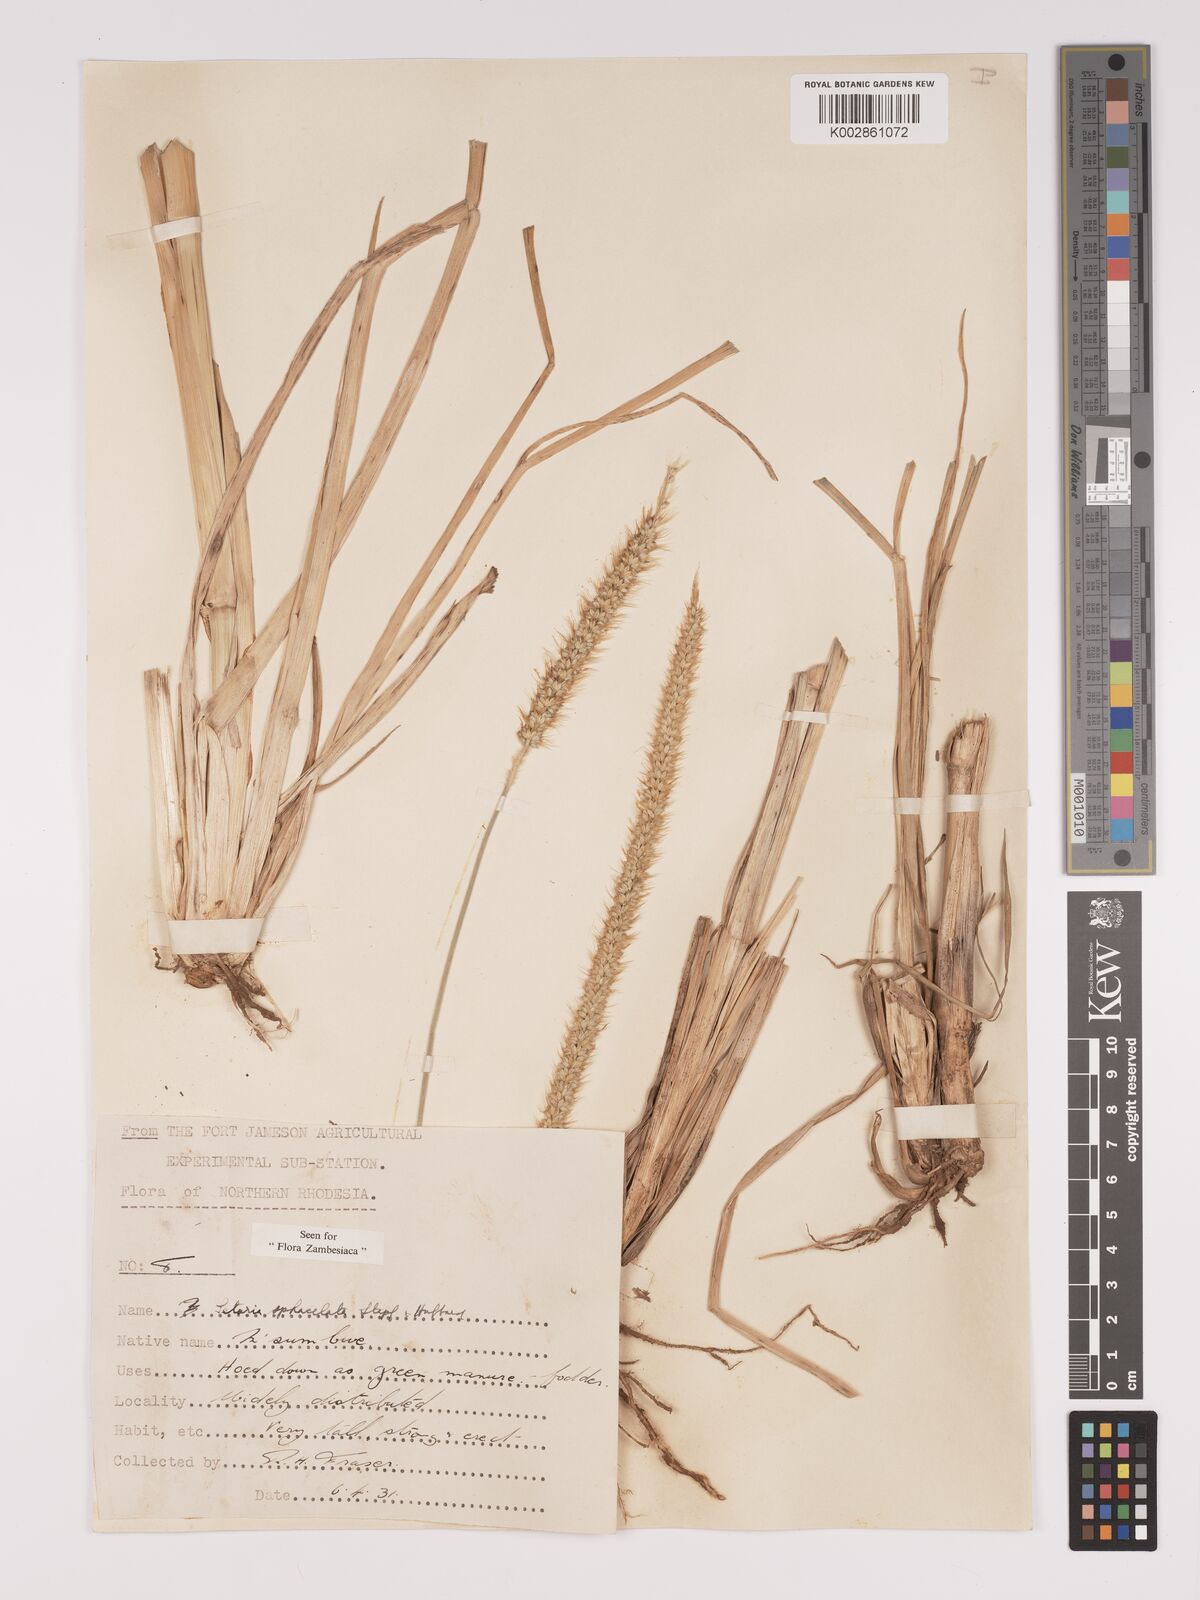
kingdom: Plantae
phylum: Tracheophyta
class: Liliopsida
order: Poales
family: Poaceae
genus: Setaria
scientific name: Setaria sphacelata
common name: African bristlegrass
